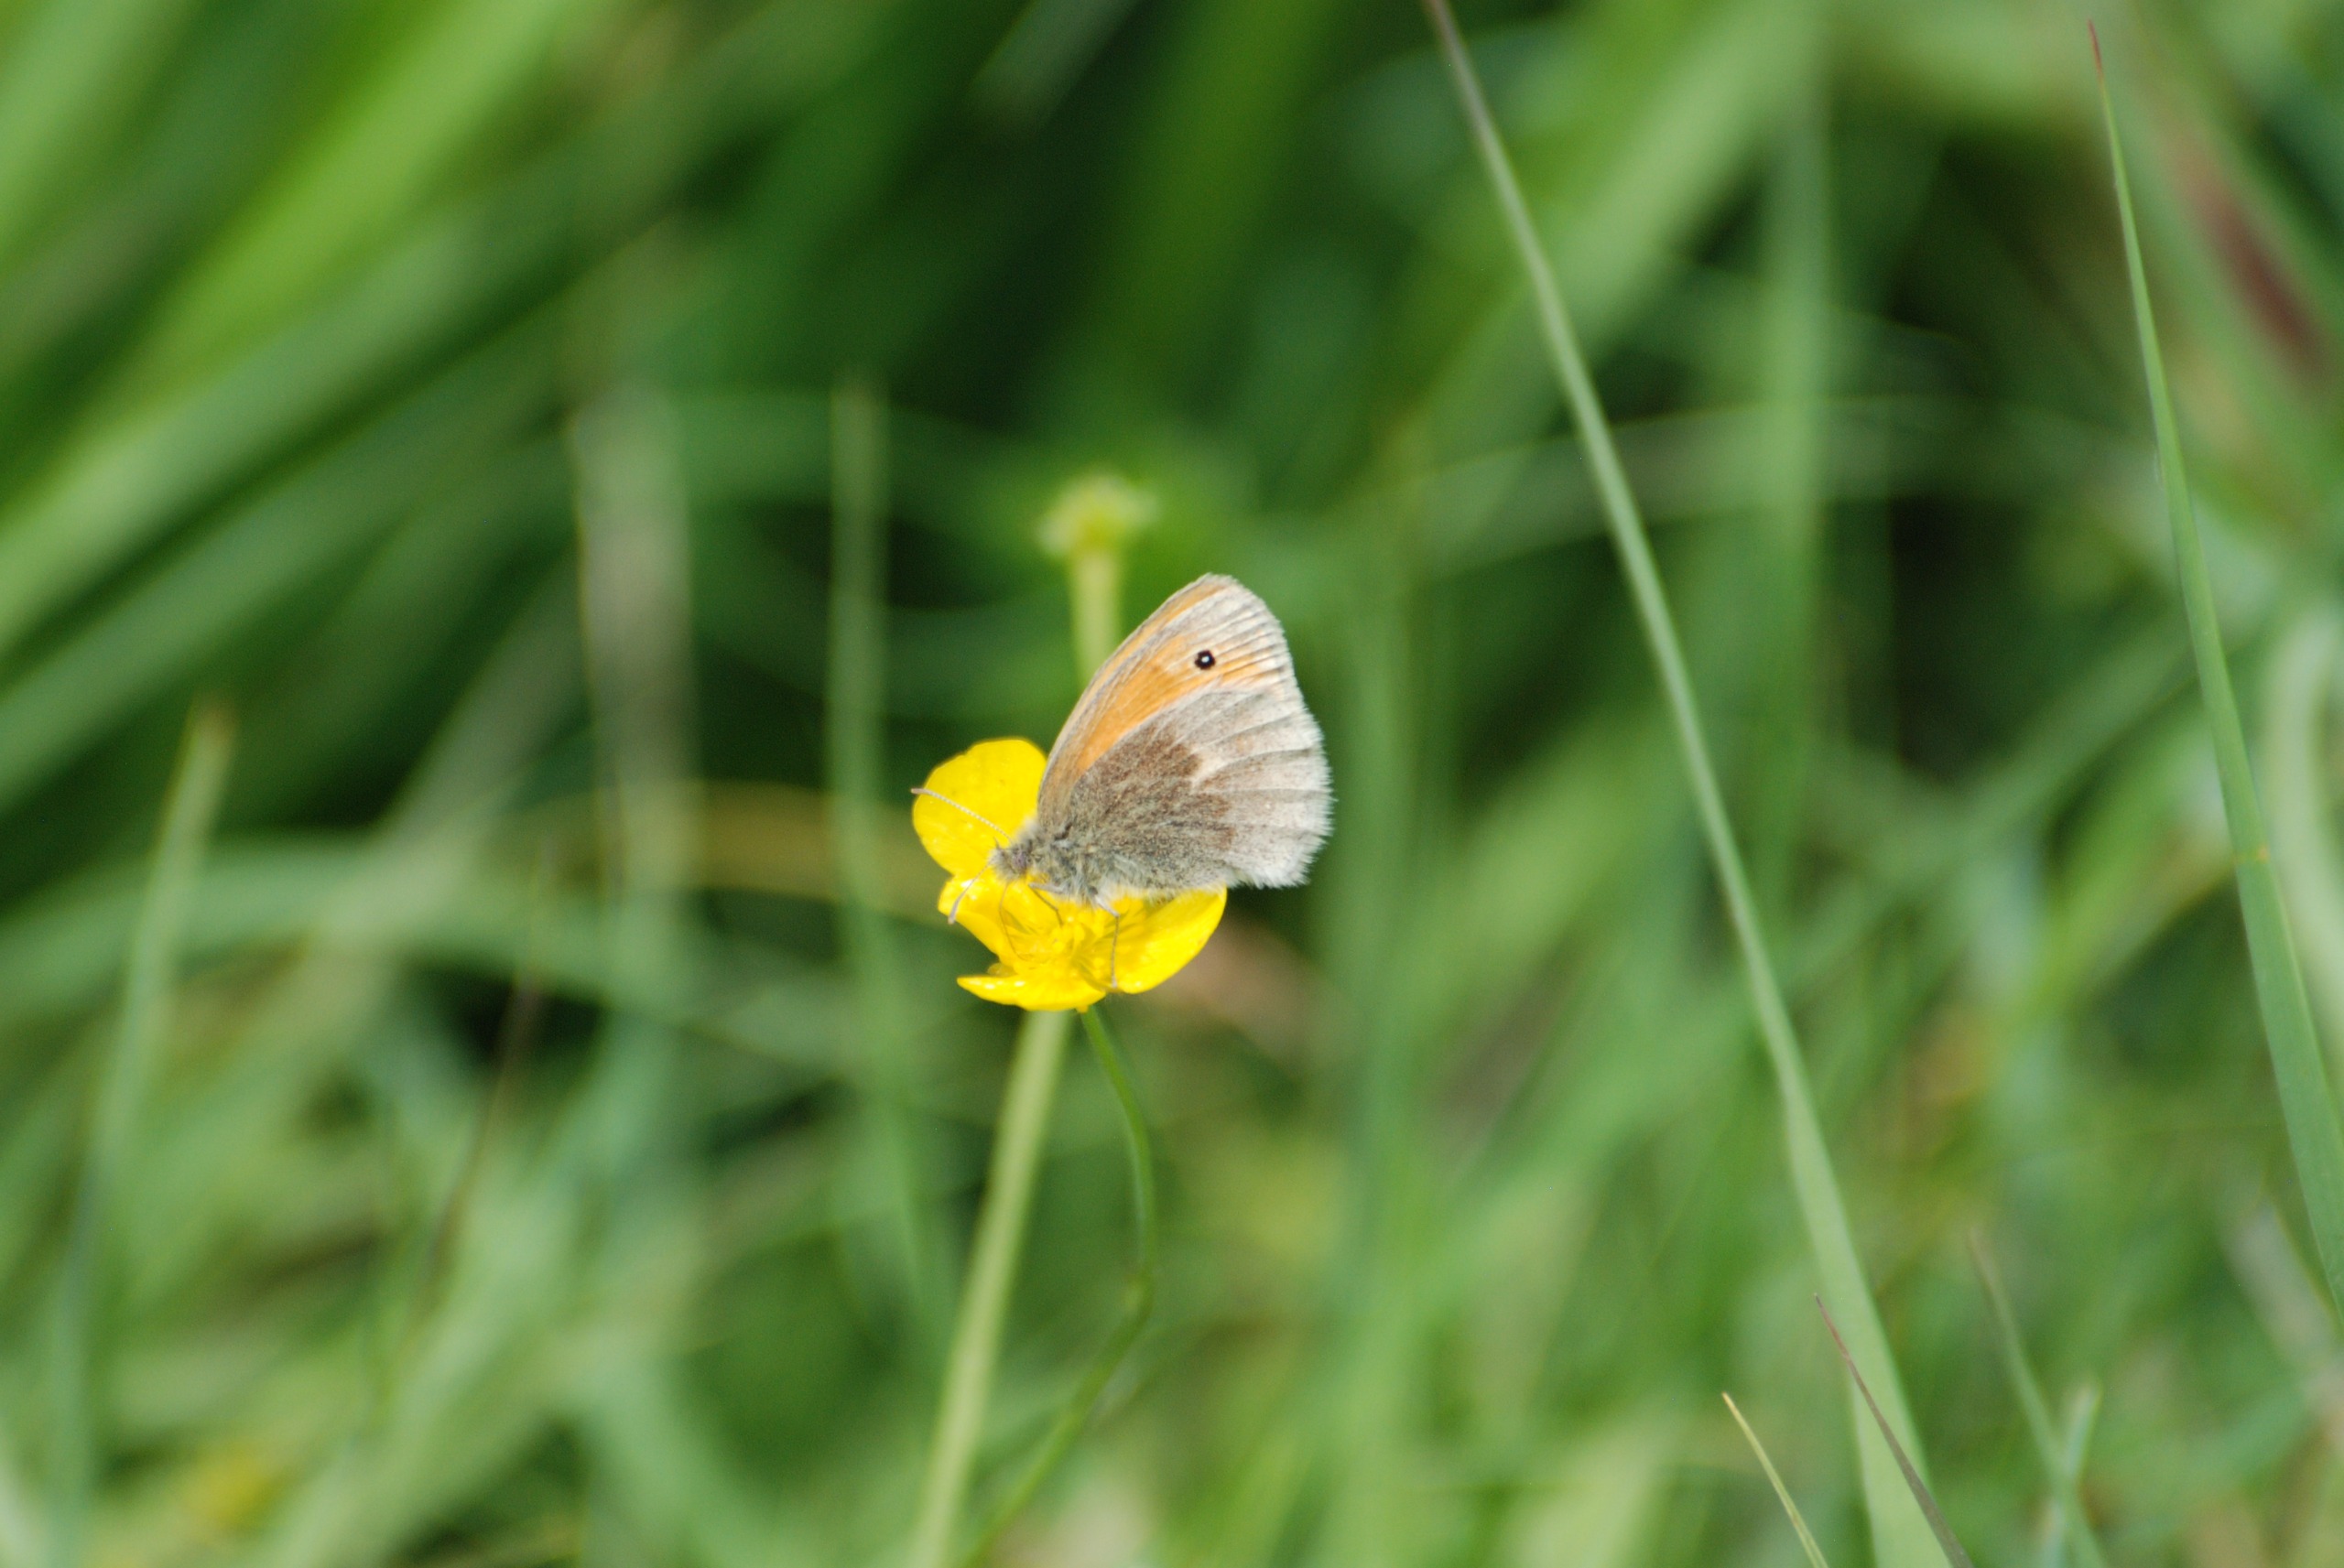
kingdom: Animalia
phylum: Arthropoda
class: Insecta
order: Lepidoptera
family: Nymphalidae
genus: Coenonympha
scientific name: Coenonympha pamphilus
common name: Okkergul randøje
